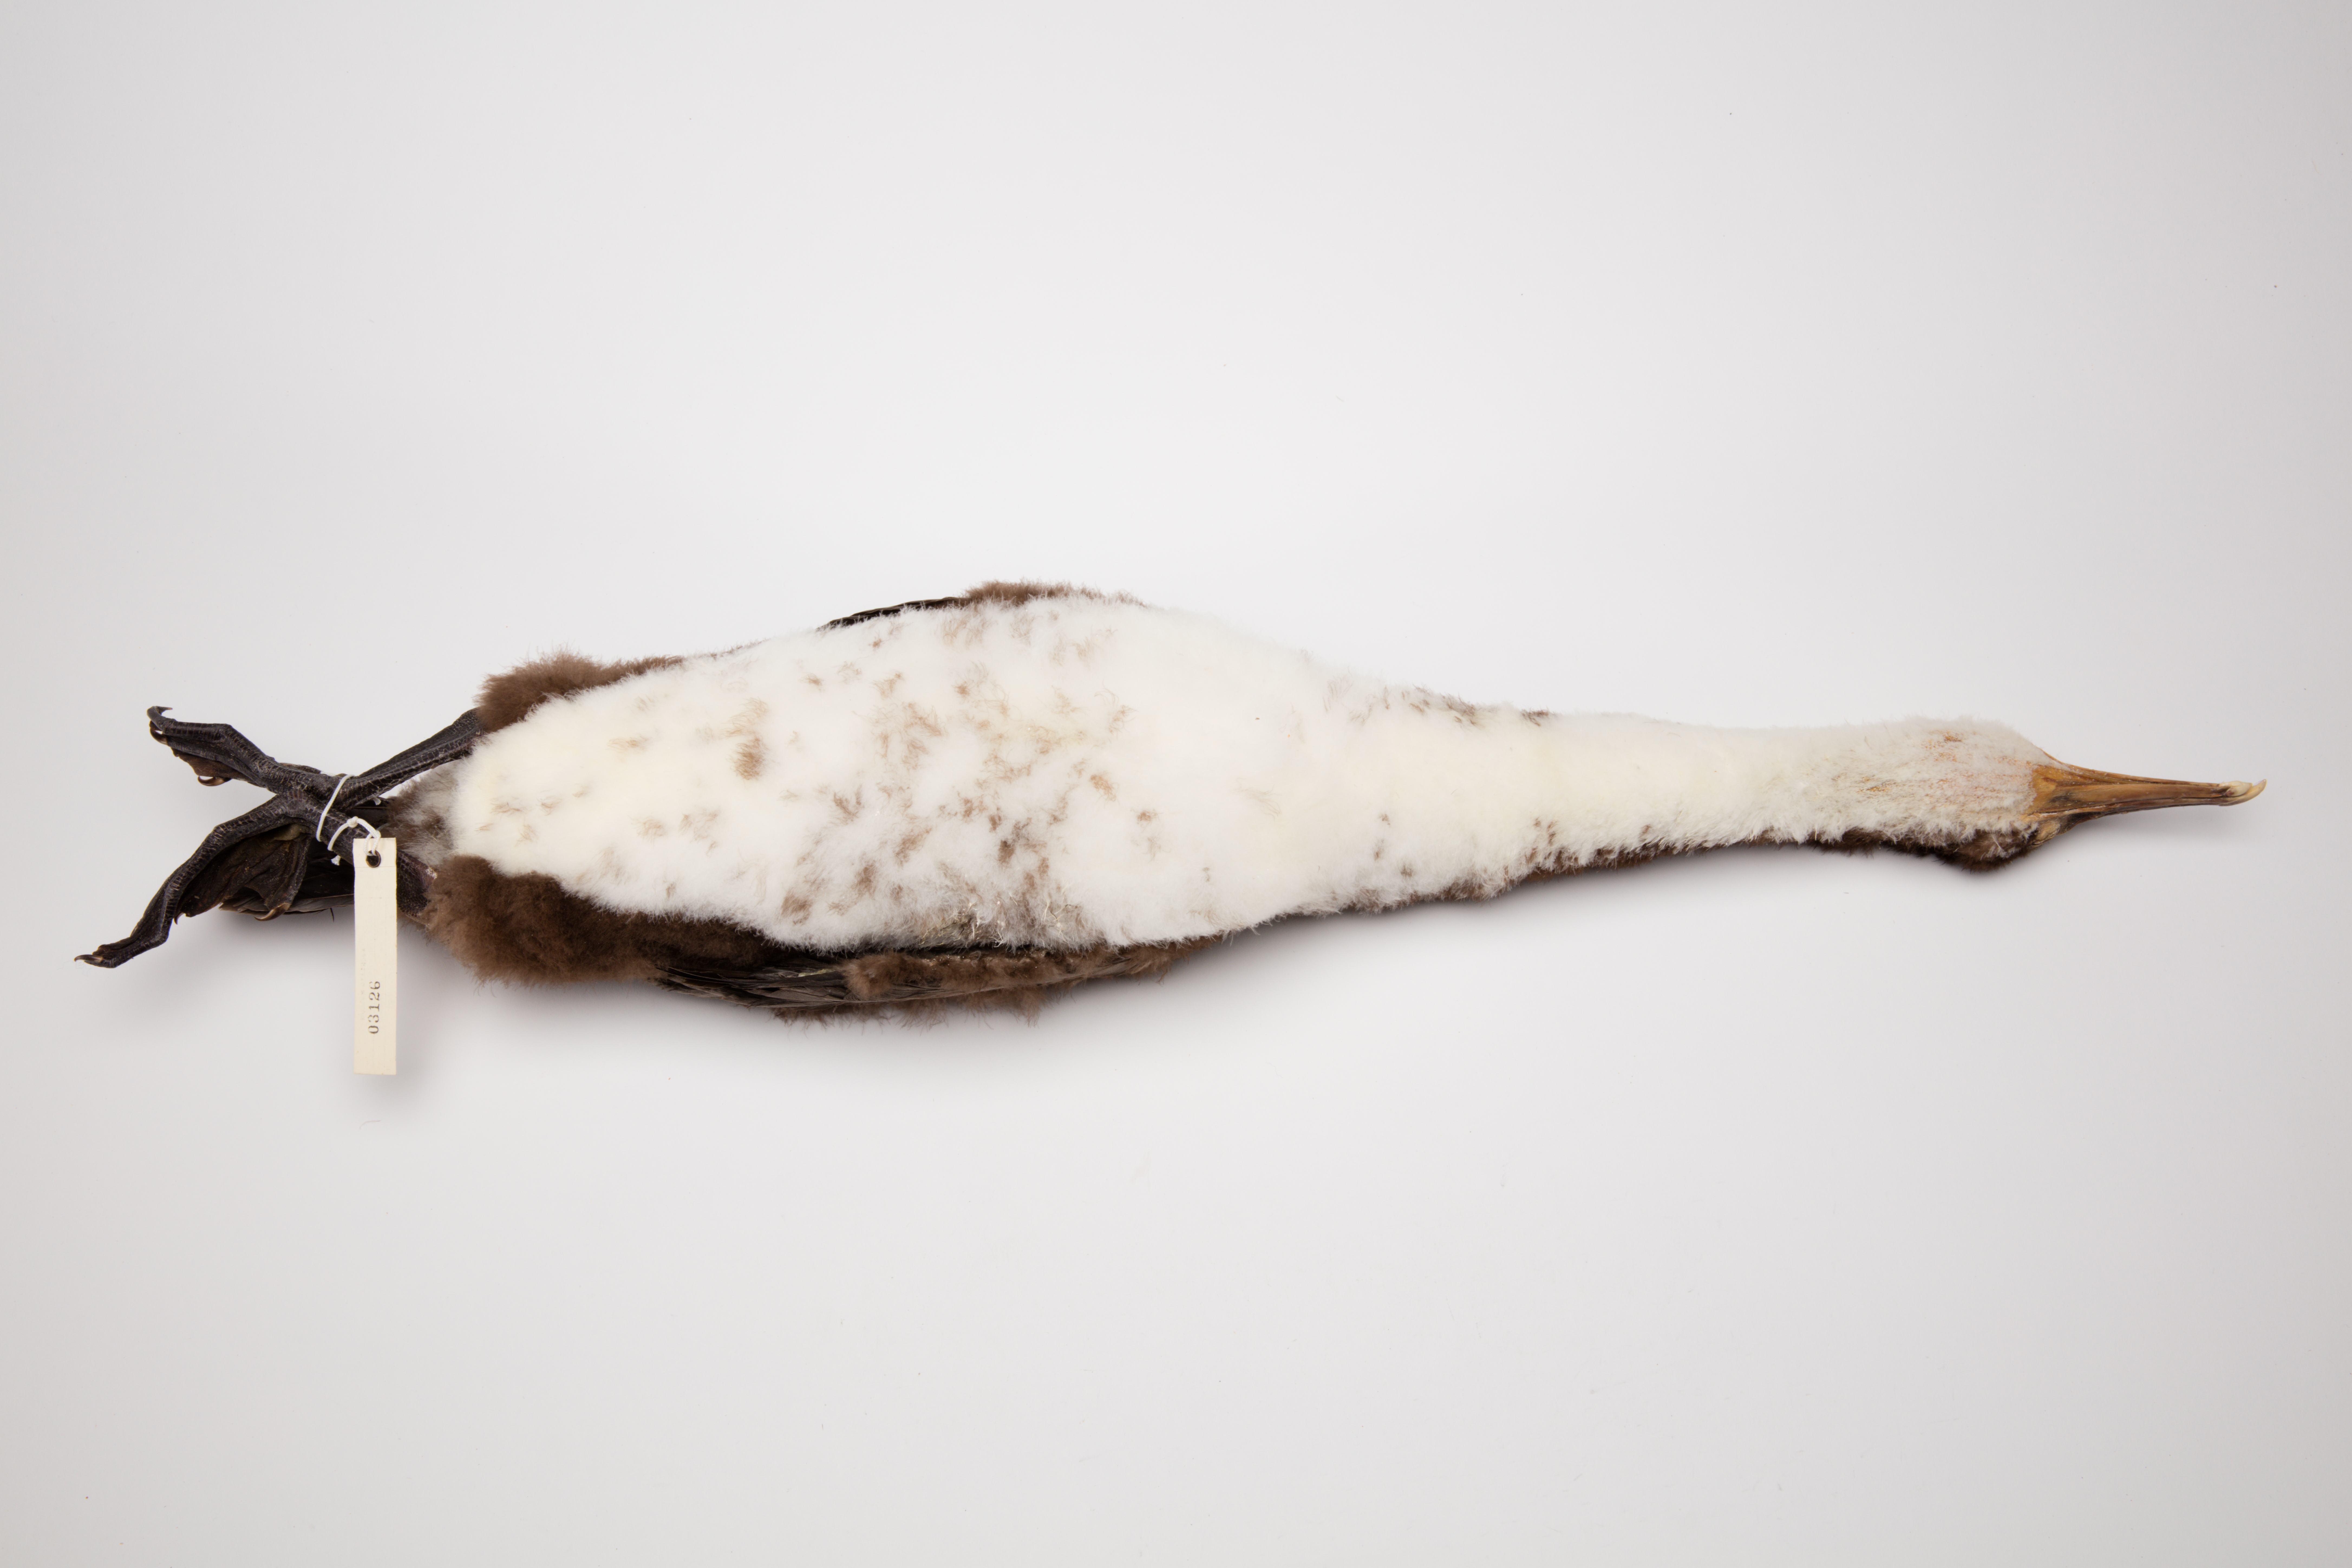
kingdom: Animalia
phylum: Chordata
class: Aves
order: Suliformes
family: Phalacrocoracidae
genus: Phalacrocorax
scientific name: Phalacrocorax varius
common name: Pied cormorant
